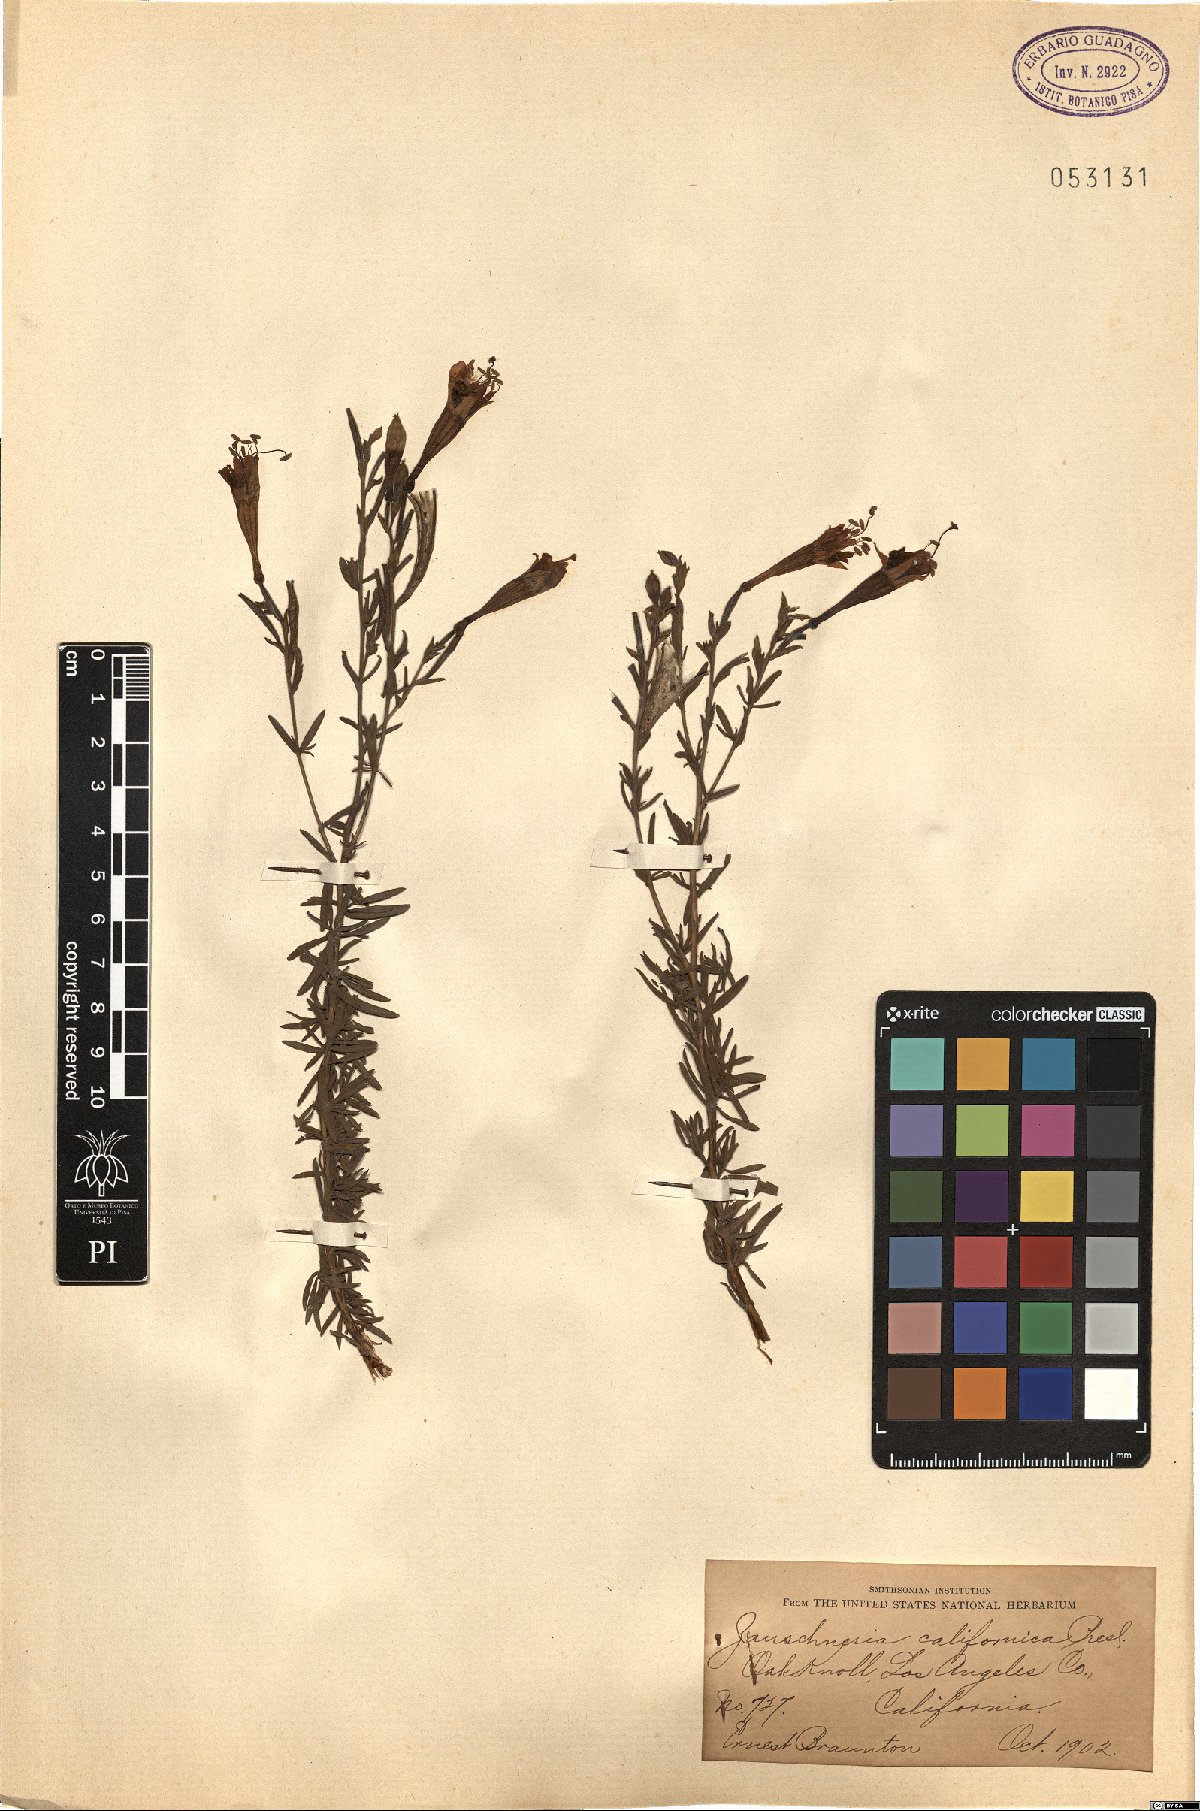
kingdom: Plantae
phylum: Tracheophyta
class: Magnoliopsida
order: Myrtales
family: Onagraceae
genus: Epilobium
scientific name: Epilobium canum
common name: California-fuchsia
